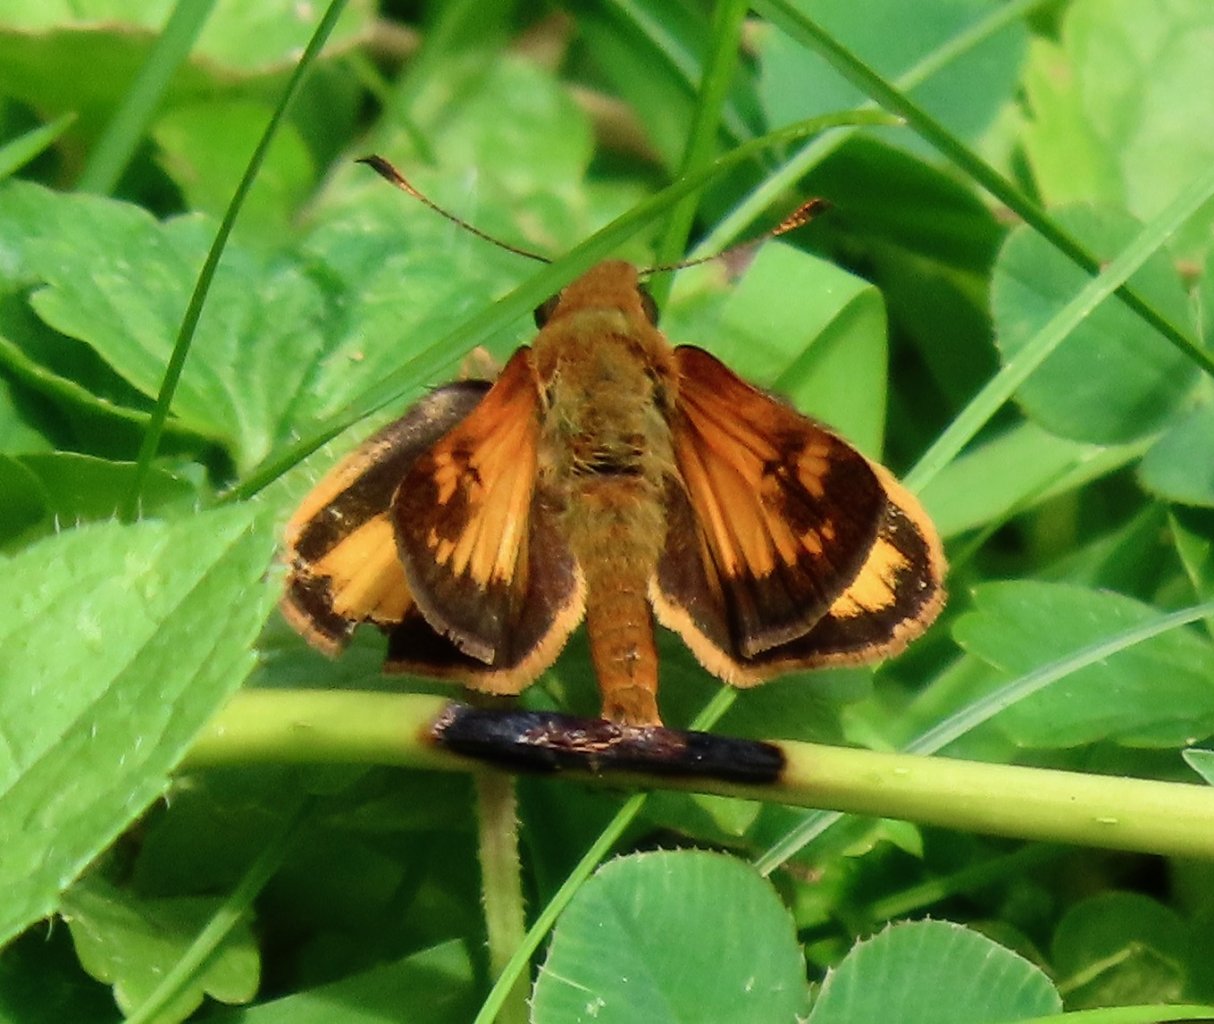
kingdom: Animalia
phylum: Arthropoda
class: Insecta
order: Lepidoptera
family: Hesperiidae
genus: Lon
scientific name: Lon zabulon
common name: Zabulon Skipper
